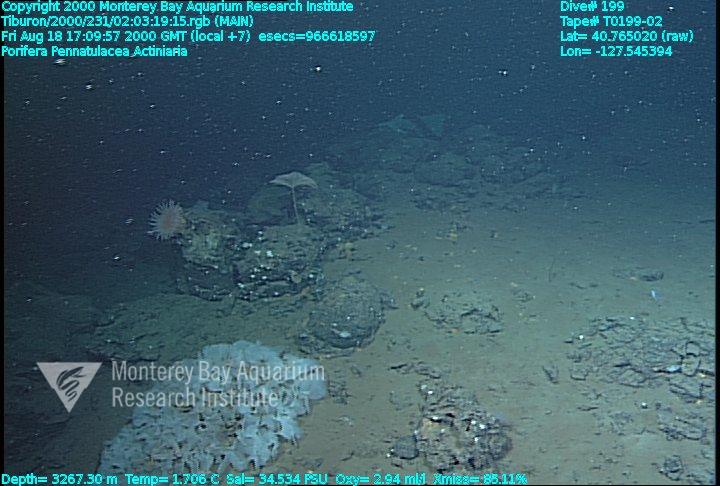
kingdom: Animalia
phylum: Porifera
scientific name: Porifera
